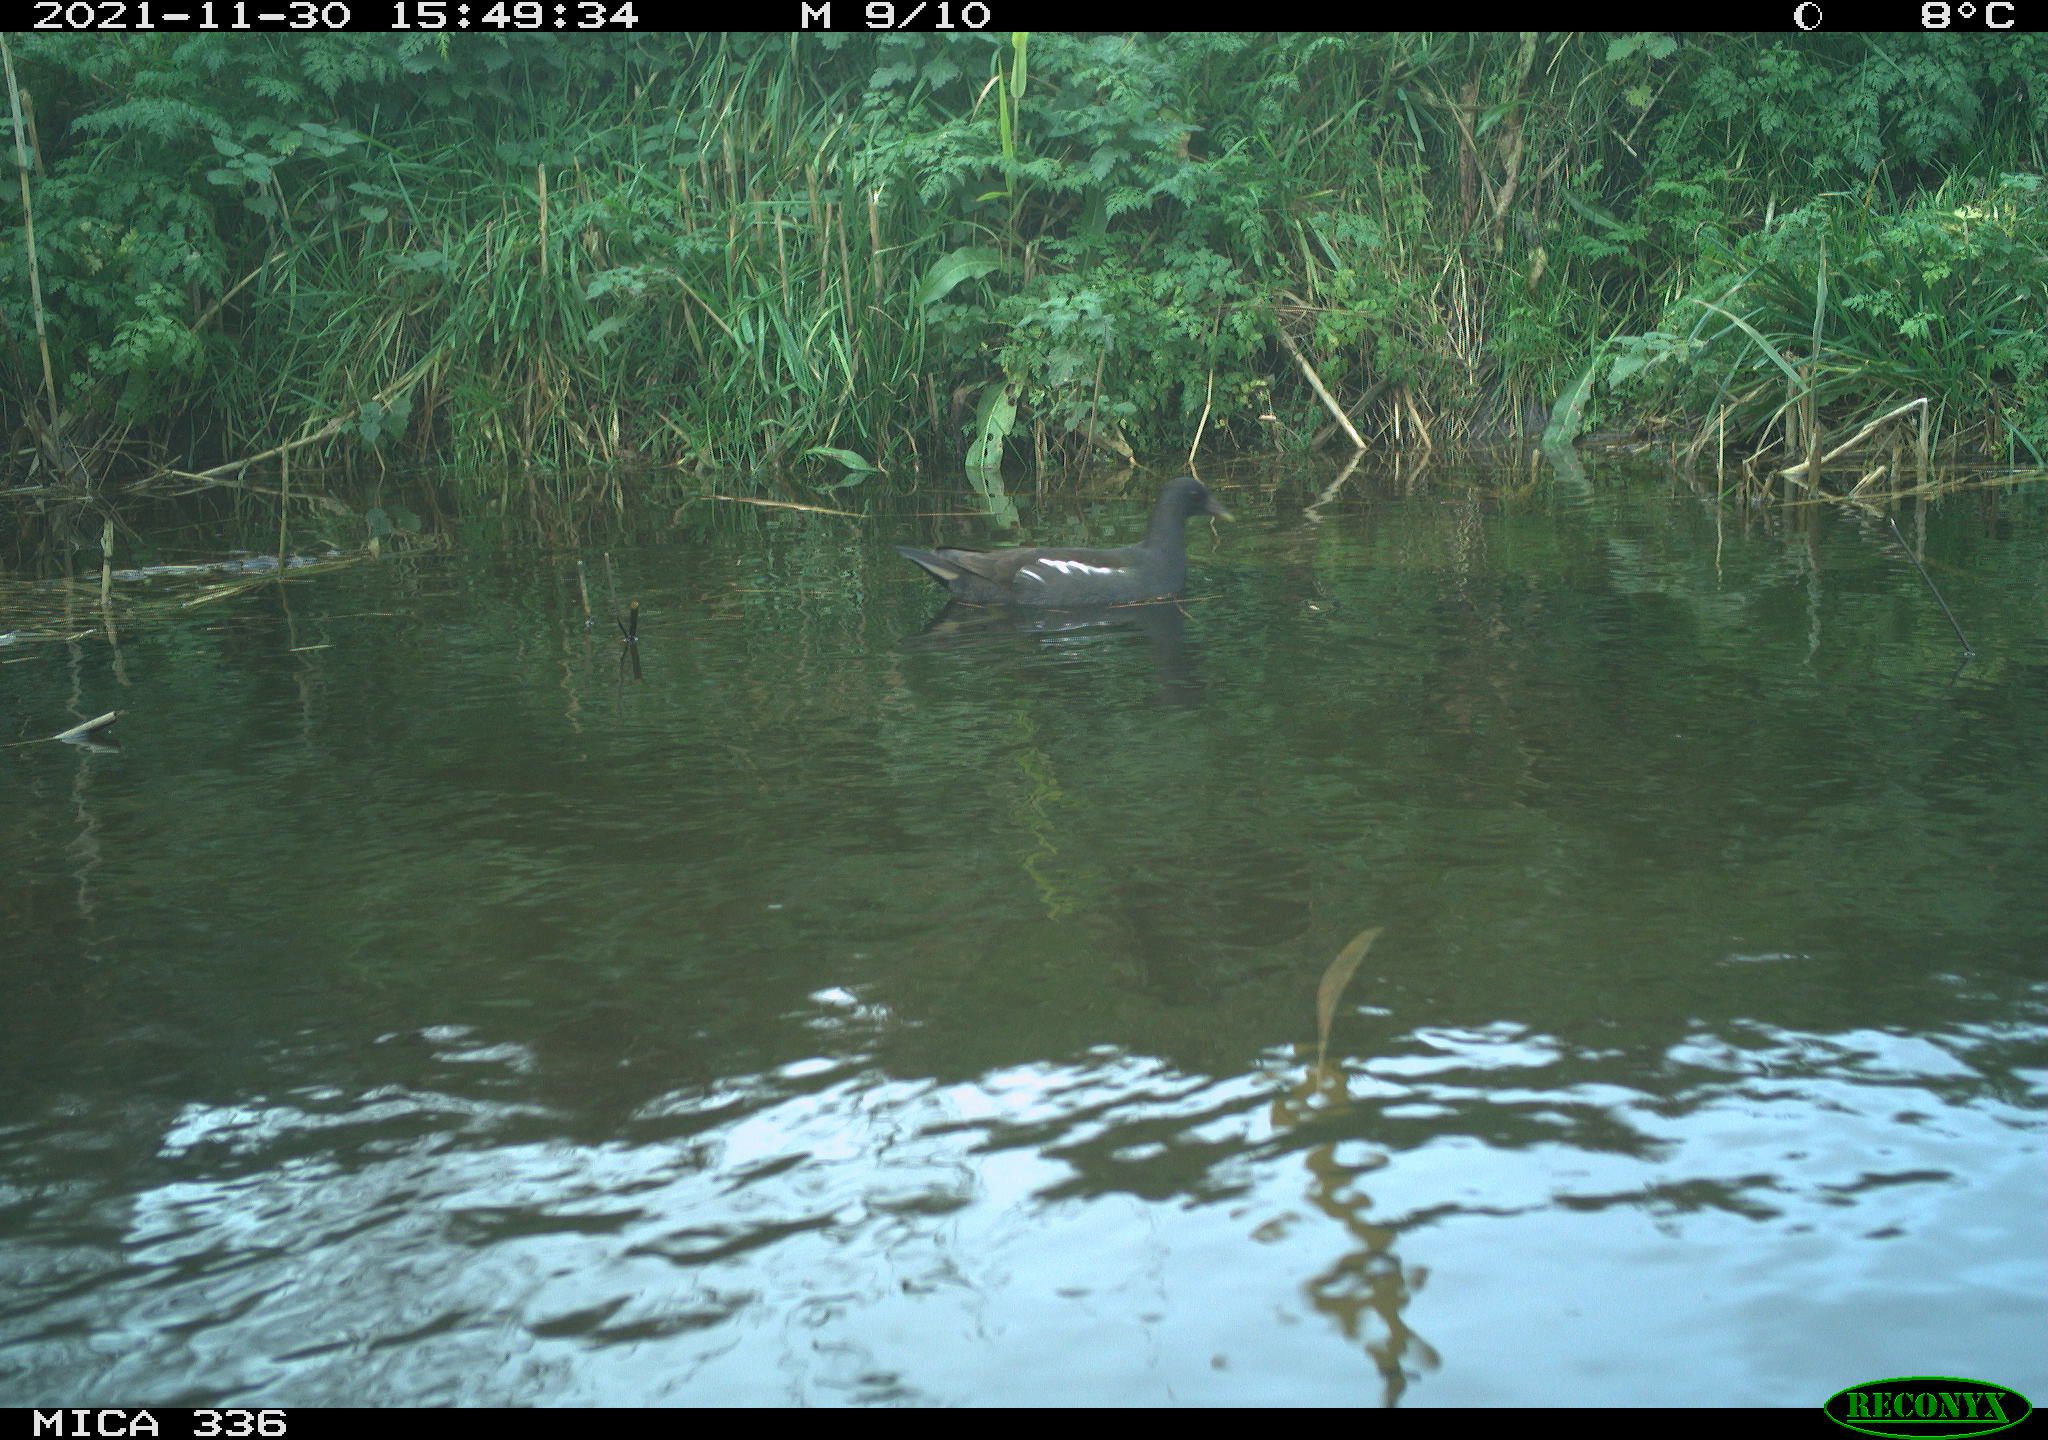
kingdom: Animalia
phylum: Chordata
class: Aves
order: Gruiformes
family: Rallidae
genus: Gallinula
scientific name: Gallinula chloropus
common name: Common moorhen
